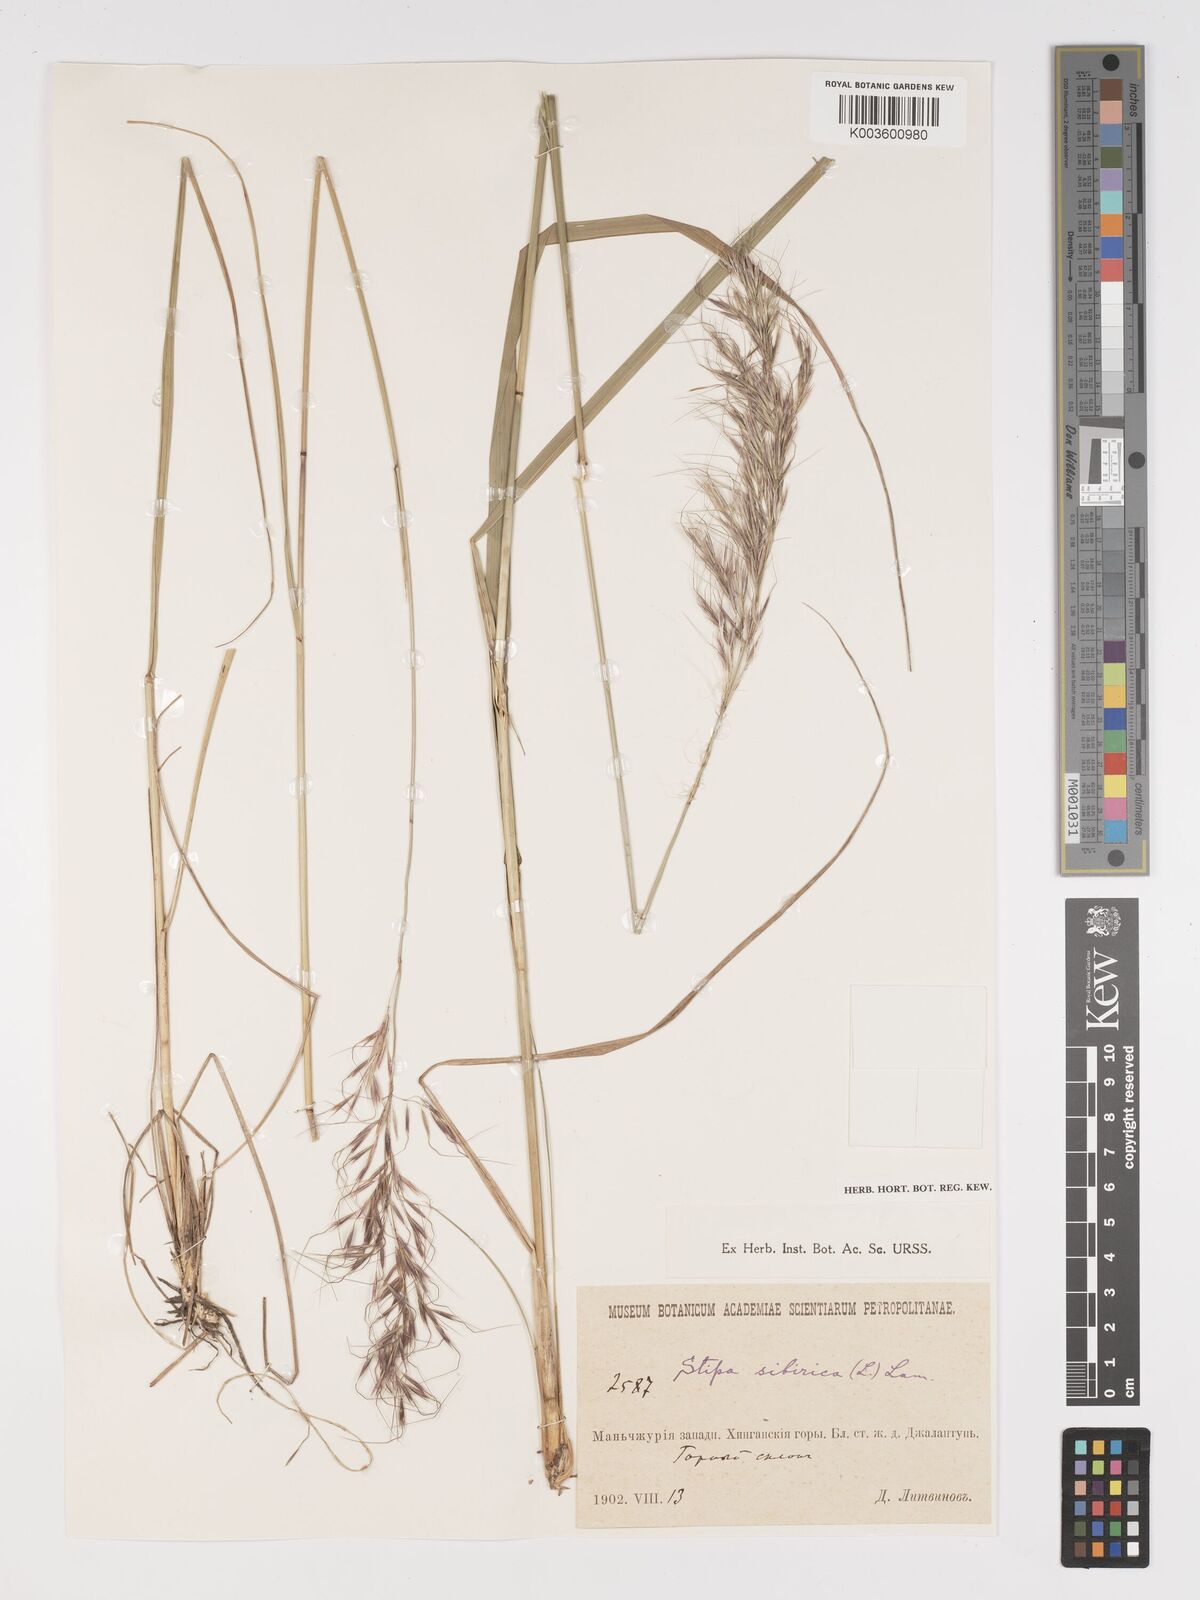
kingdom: Plantae
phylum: Tracheophyta
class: Liliopsida
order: Poales
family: Poaceae
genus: Achnatherum
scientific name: Achnatherum sibiricum
